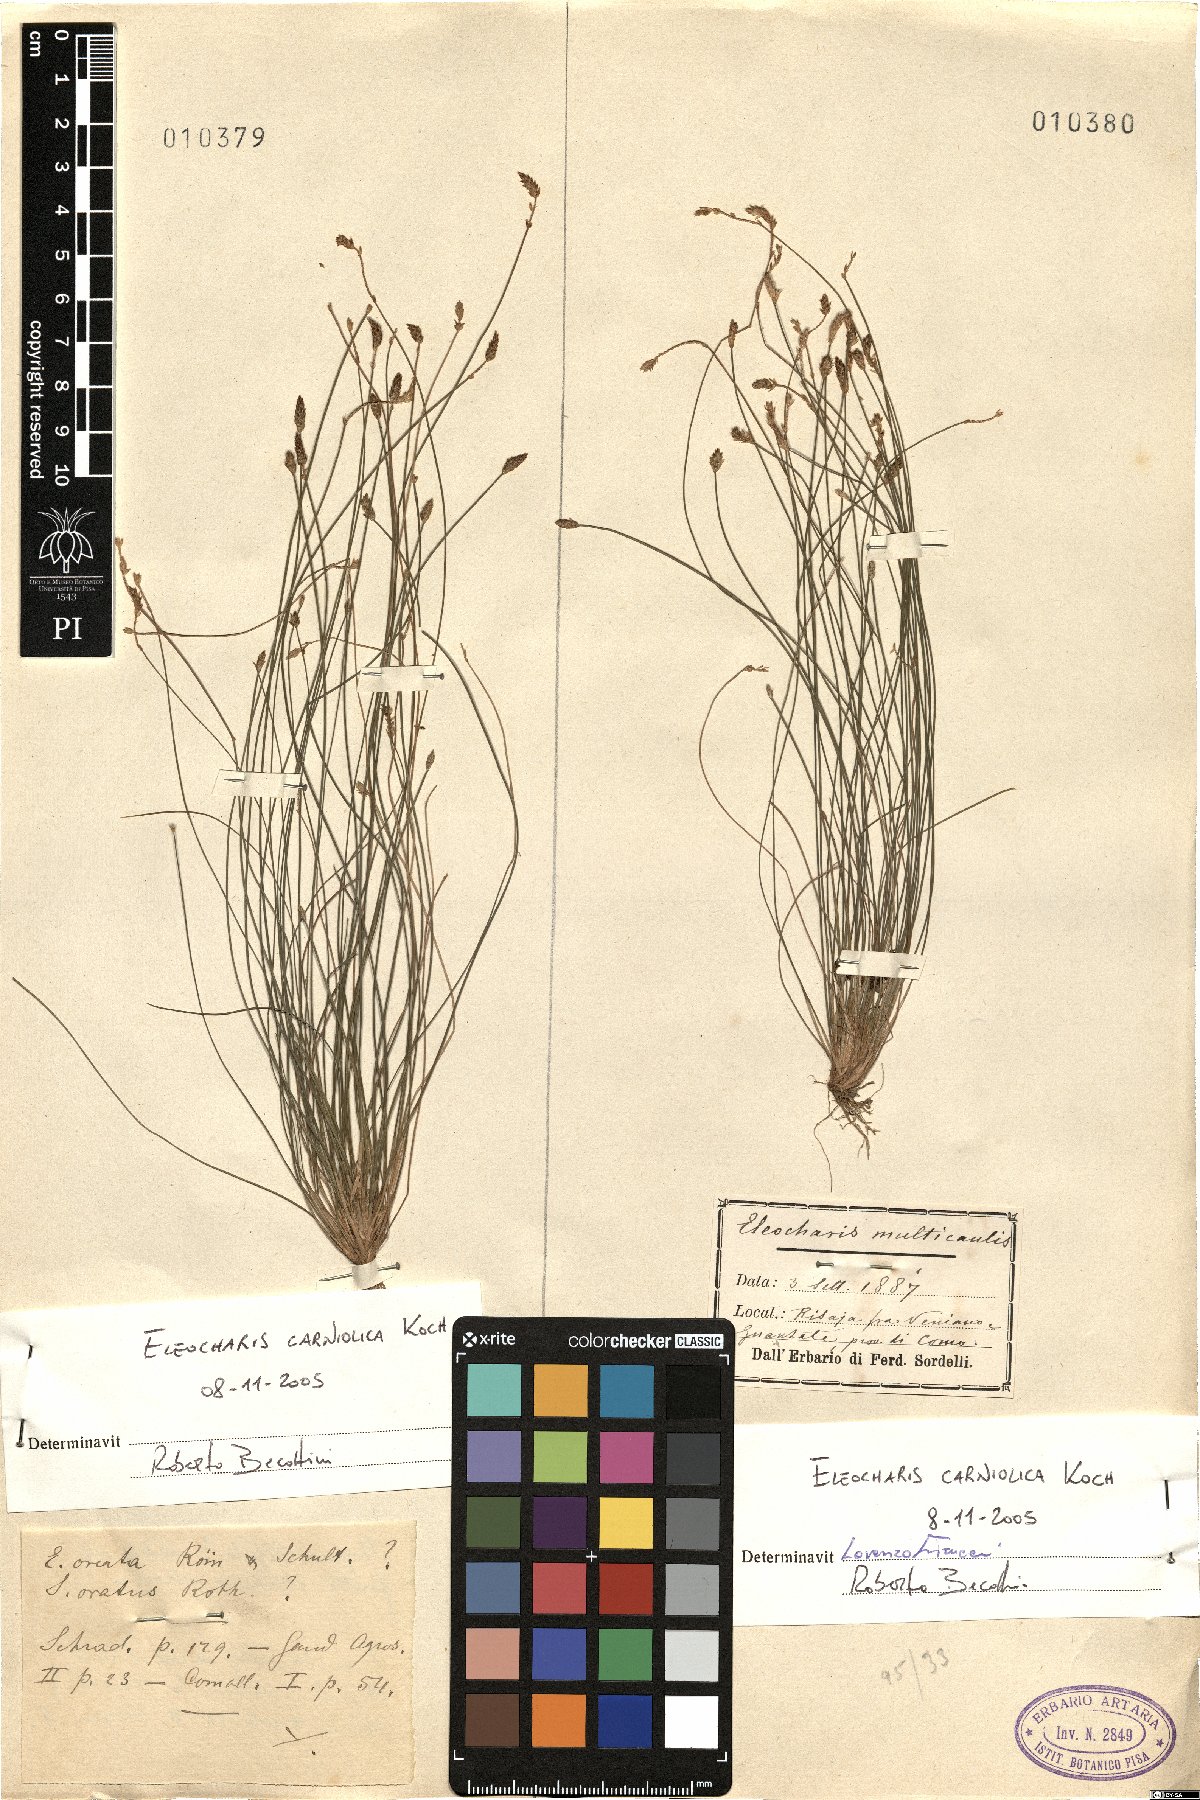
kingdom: Plantae
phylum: Tracheophyta
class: Liliopsida
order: Poales
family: Cyperaceae
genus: Eleocharis
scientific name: Eleocharis carniolica
